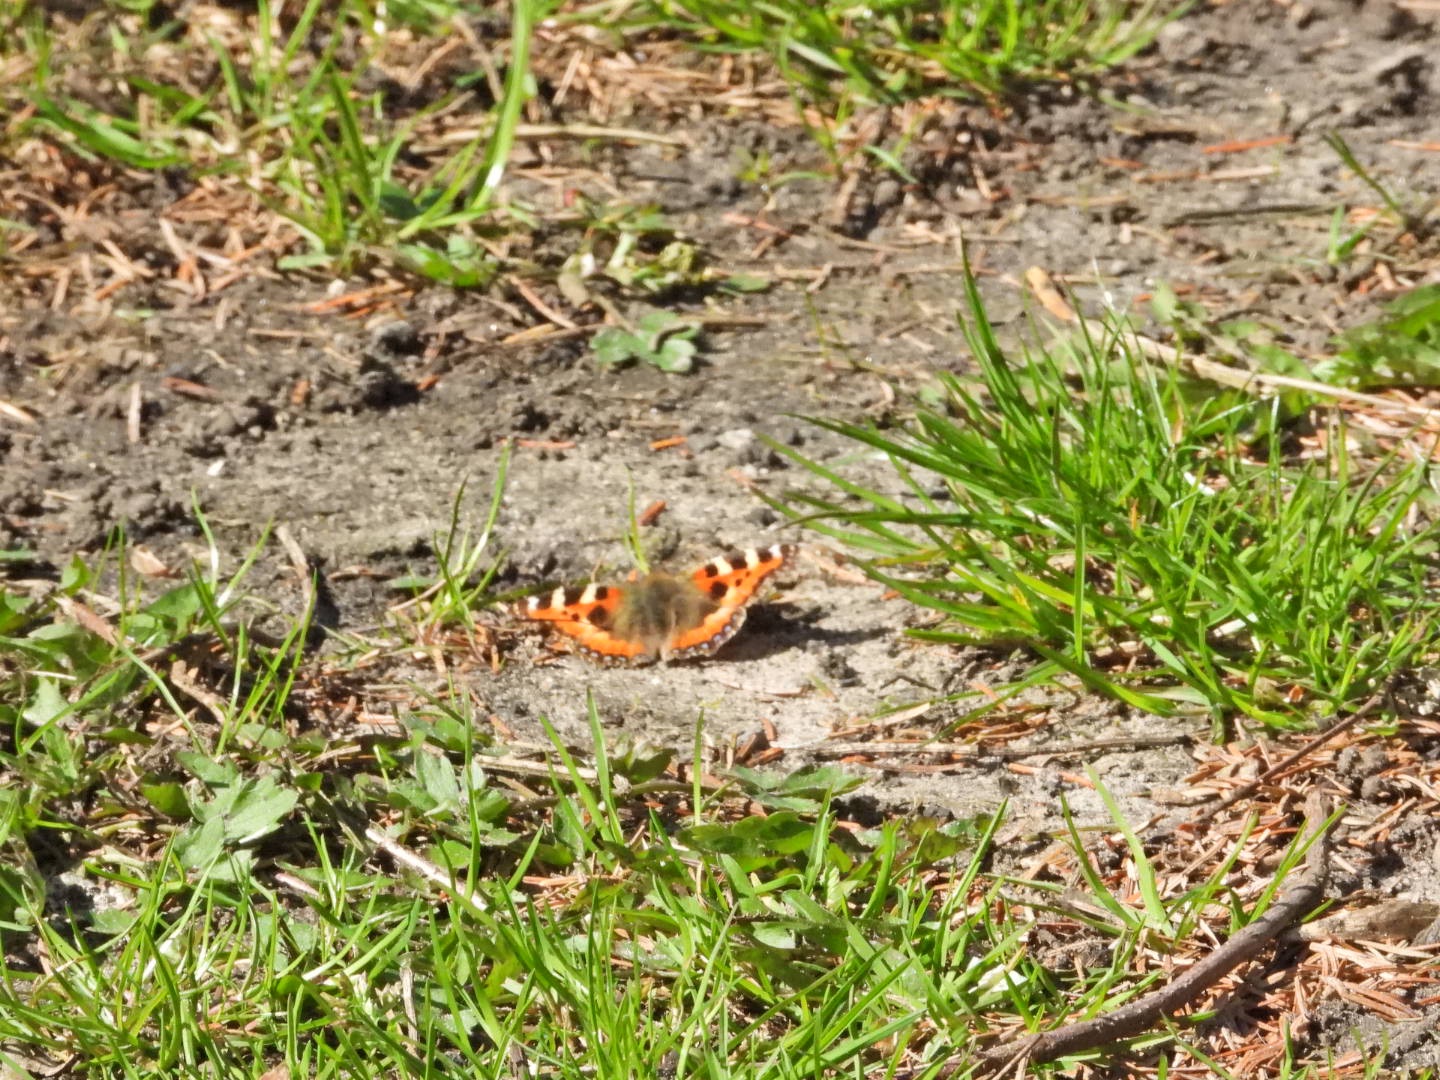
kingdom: Animalia
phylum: Arthropoda
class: Insecta
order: Lepidoptera
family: Nymphalidae
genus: Aglais
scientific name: Aglais urticae
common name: Nældens takvinge
